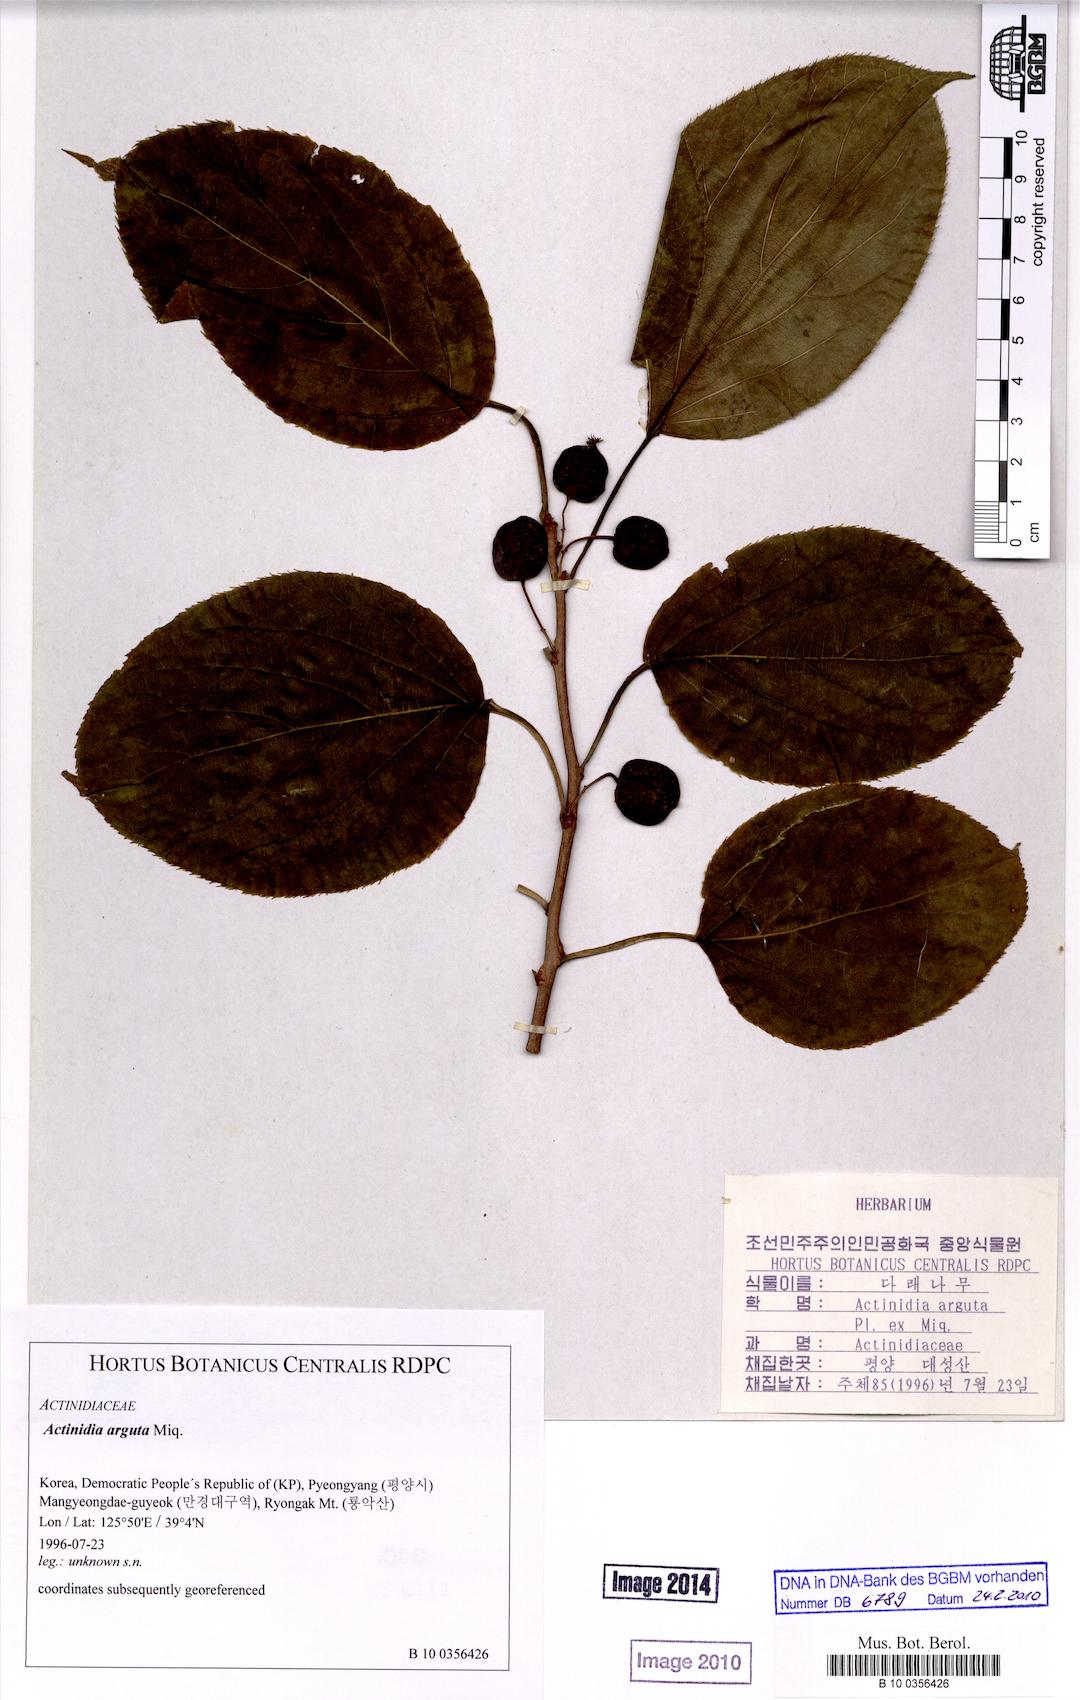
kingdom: Plantae
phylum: Tracheophyta
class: Magnoliopsida
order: Ericales
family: Actinidiaceae
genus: Actinidia
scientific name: Actinidia arguta
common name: Tara vine
